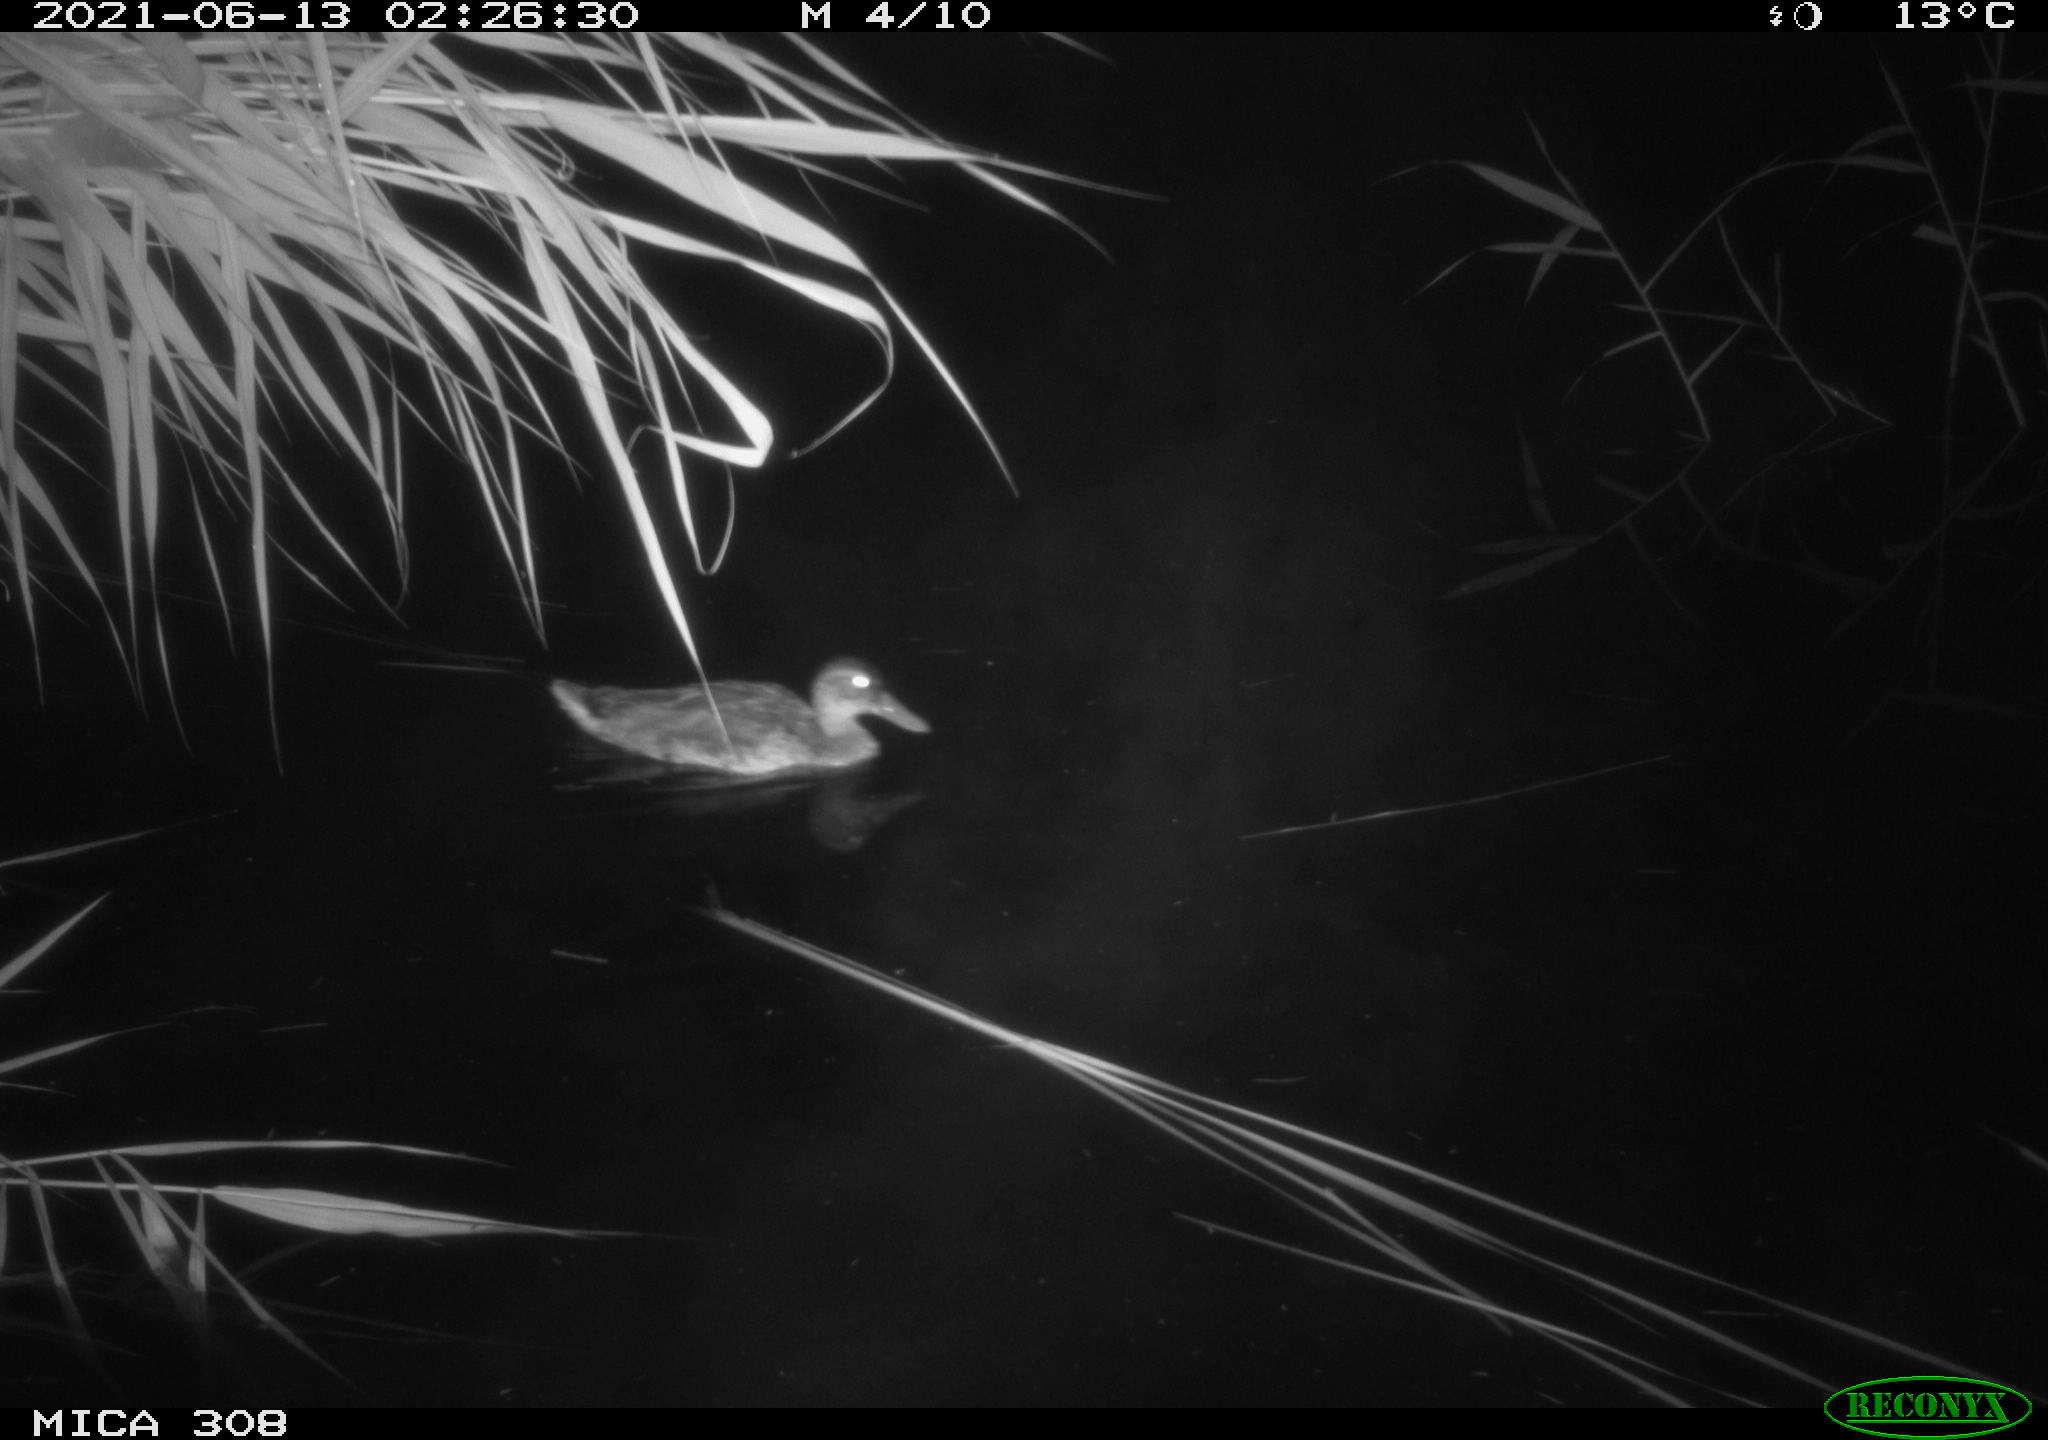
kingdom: Animalia
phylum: Chordata
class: Aves
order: Anseriformes
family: Anatidae
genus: Anas
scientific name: Anas platyrhynchos
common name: Mallard
